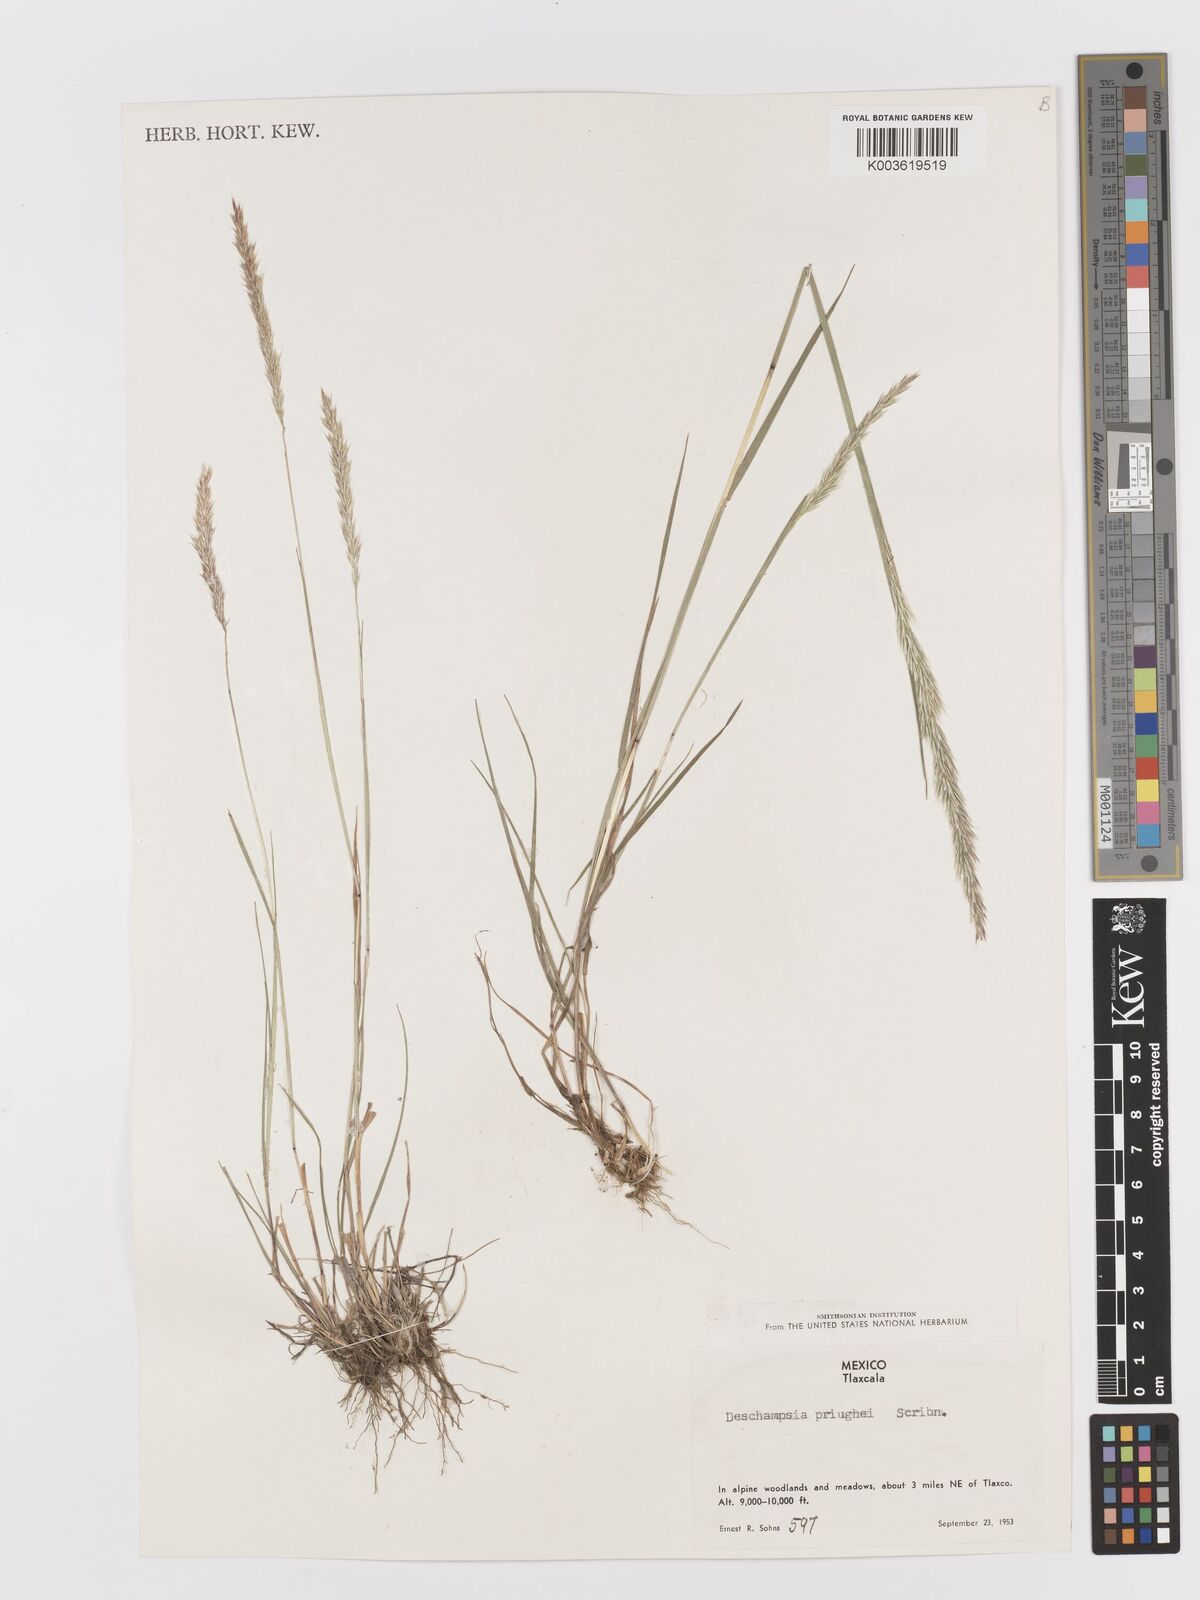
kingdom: Plantae
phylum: Tracheophyta
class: Liliopsida
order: Poales
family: Poaceae
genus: Peyritschia
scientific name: Peyritschia pringlei
